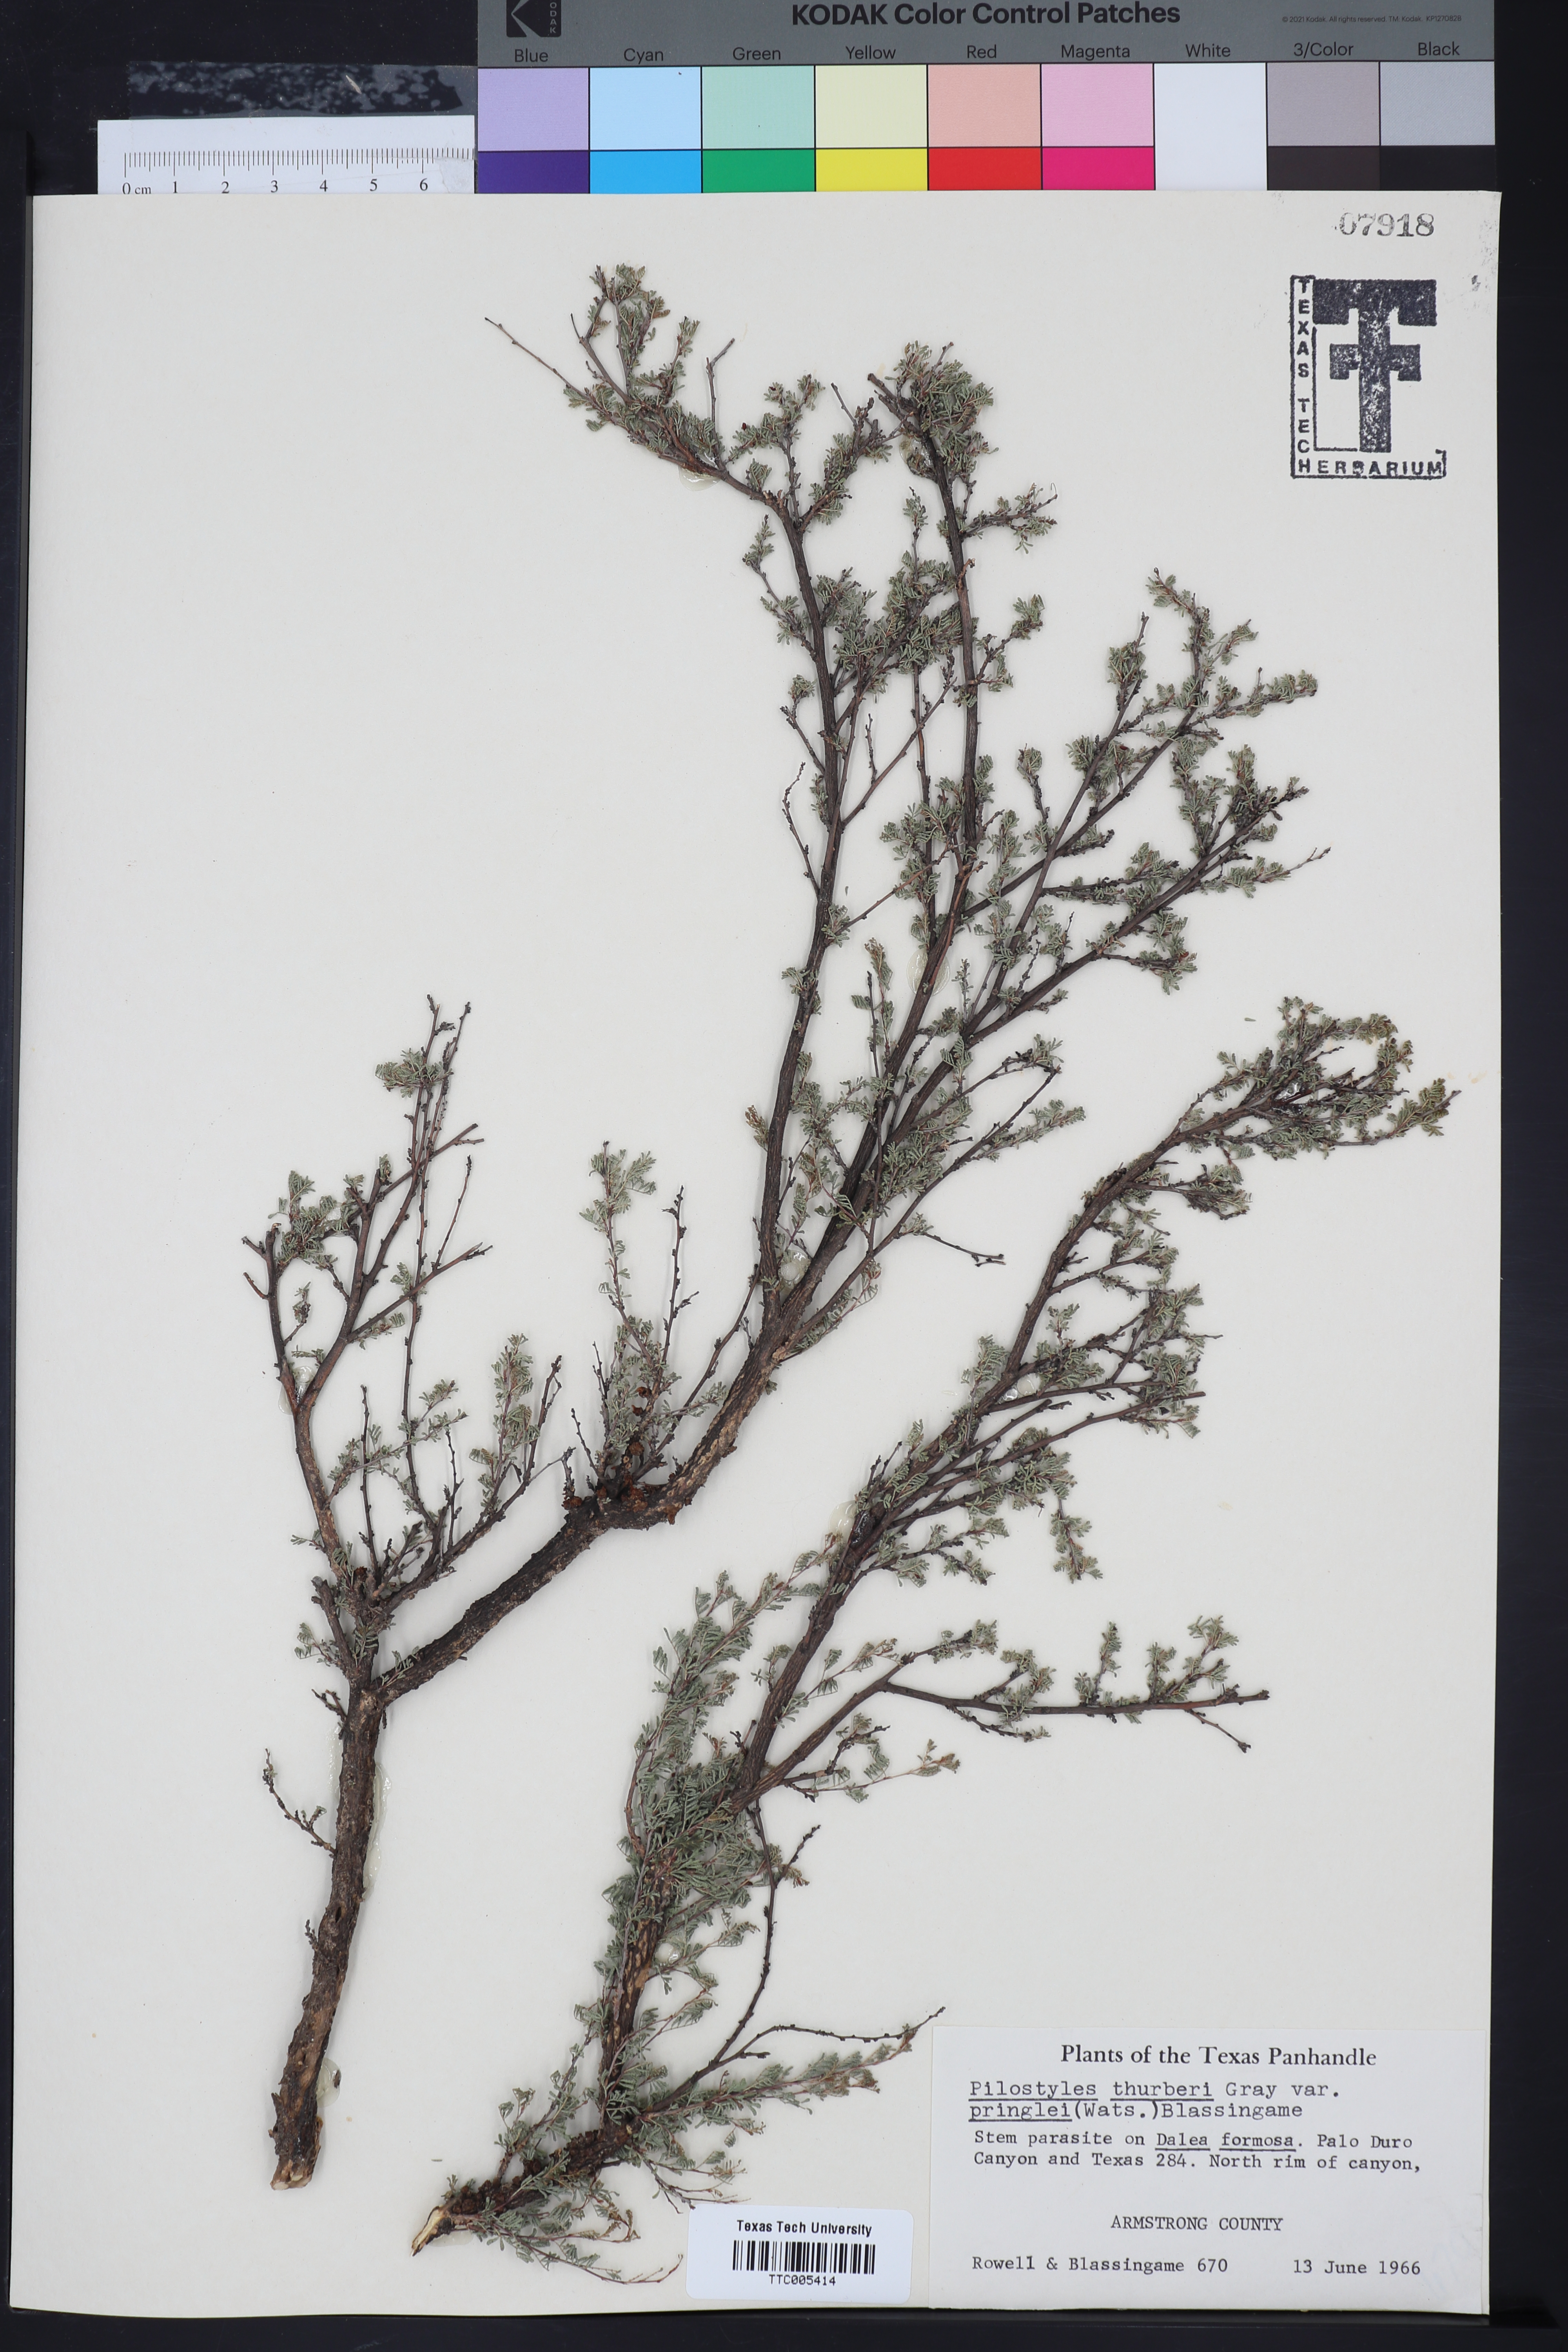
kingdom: Plantae
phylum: Tracheophyta
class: Magnoliopsida
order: Cucurbitales
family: Apodanthaceae
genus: Pilostyles
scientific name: Pilostyles thurberi
